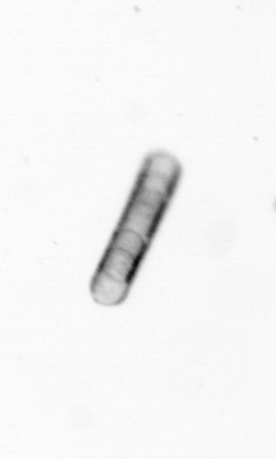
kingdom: Chromista
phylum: Ochrophyta
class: Bacillariophyceae
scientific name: Bacillariophyceae
